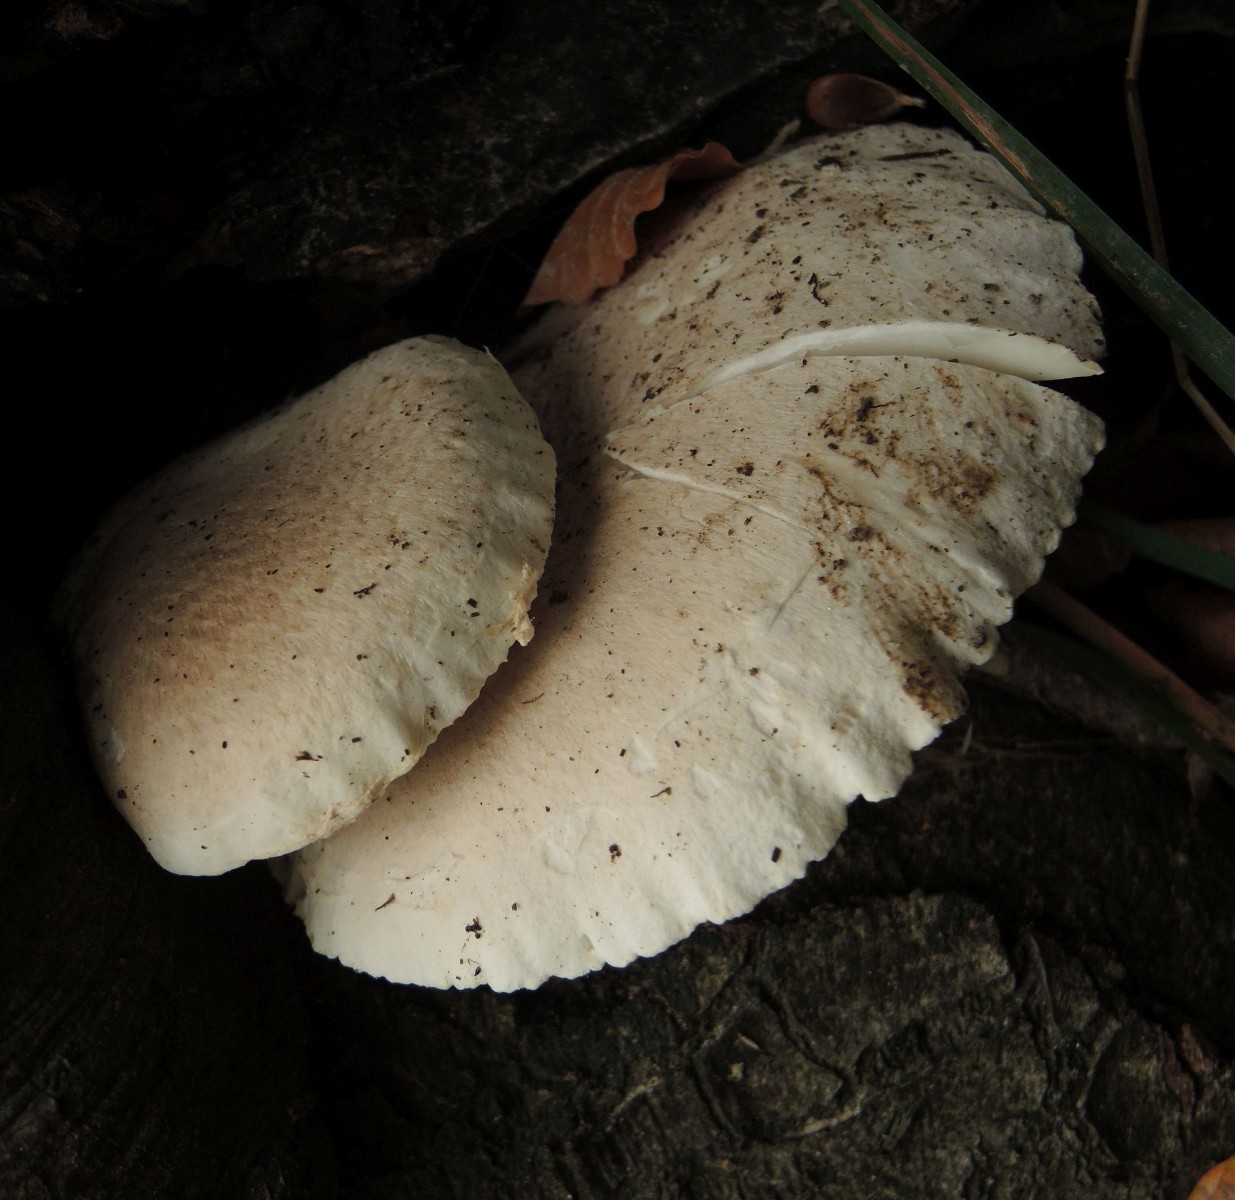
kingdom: Fungi
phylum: Basidiomycota
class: Agaricomycetes
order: Agaricales
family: Pleurotaceae
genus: Pleurotus
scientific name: Pleurotus dryinus
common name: korkagtig østershat
